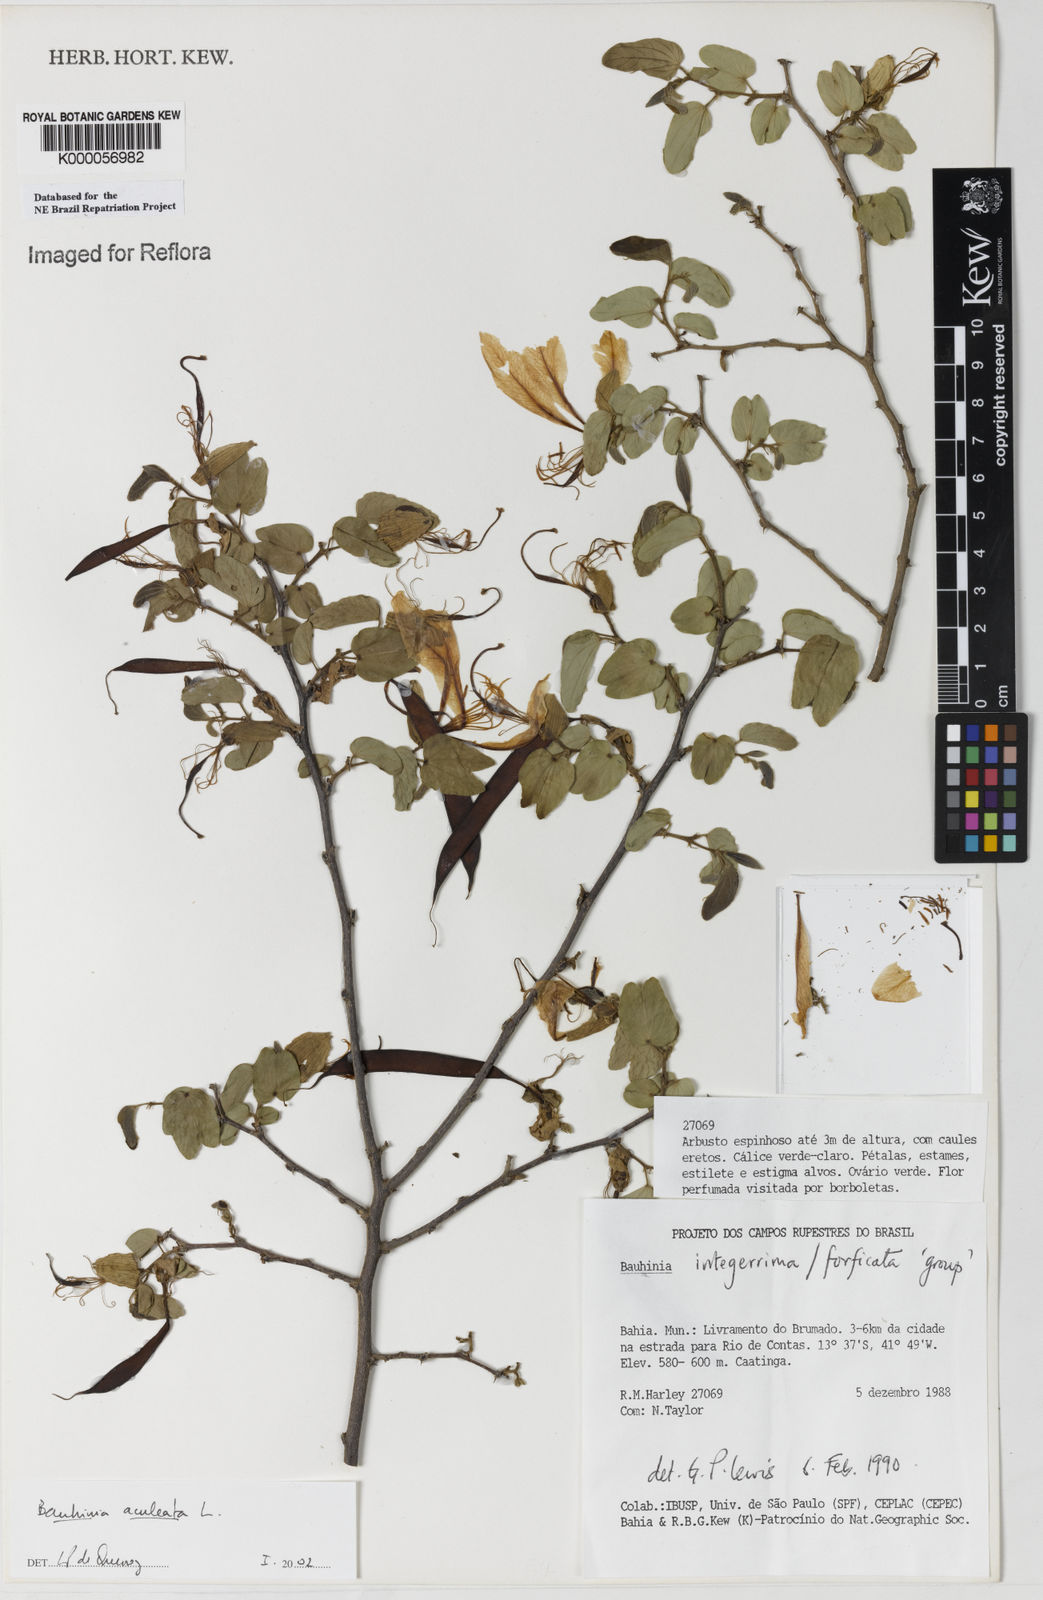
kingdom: Plantae
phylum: Tracheophyta
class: Magnoliopsida
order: Fabales
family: Fabaceae
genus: Bauhinia
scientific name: Bauhinia aculeata
